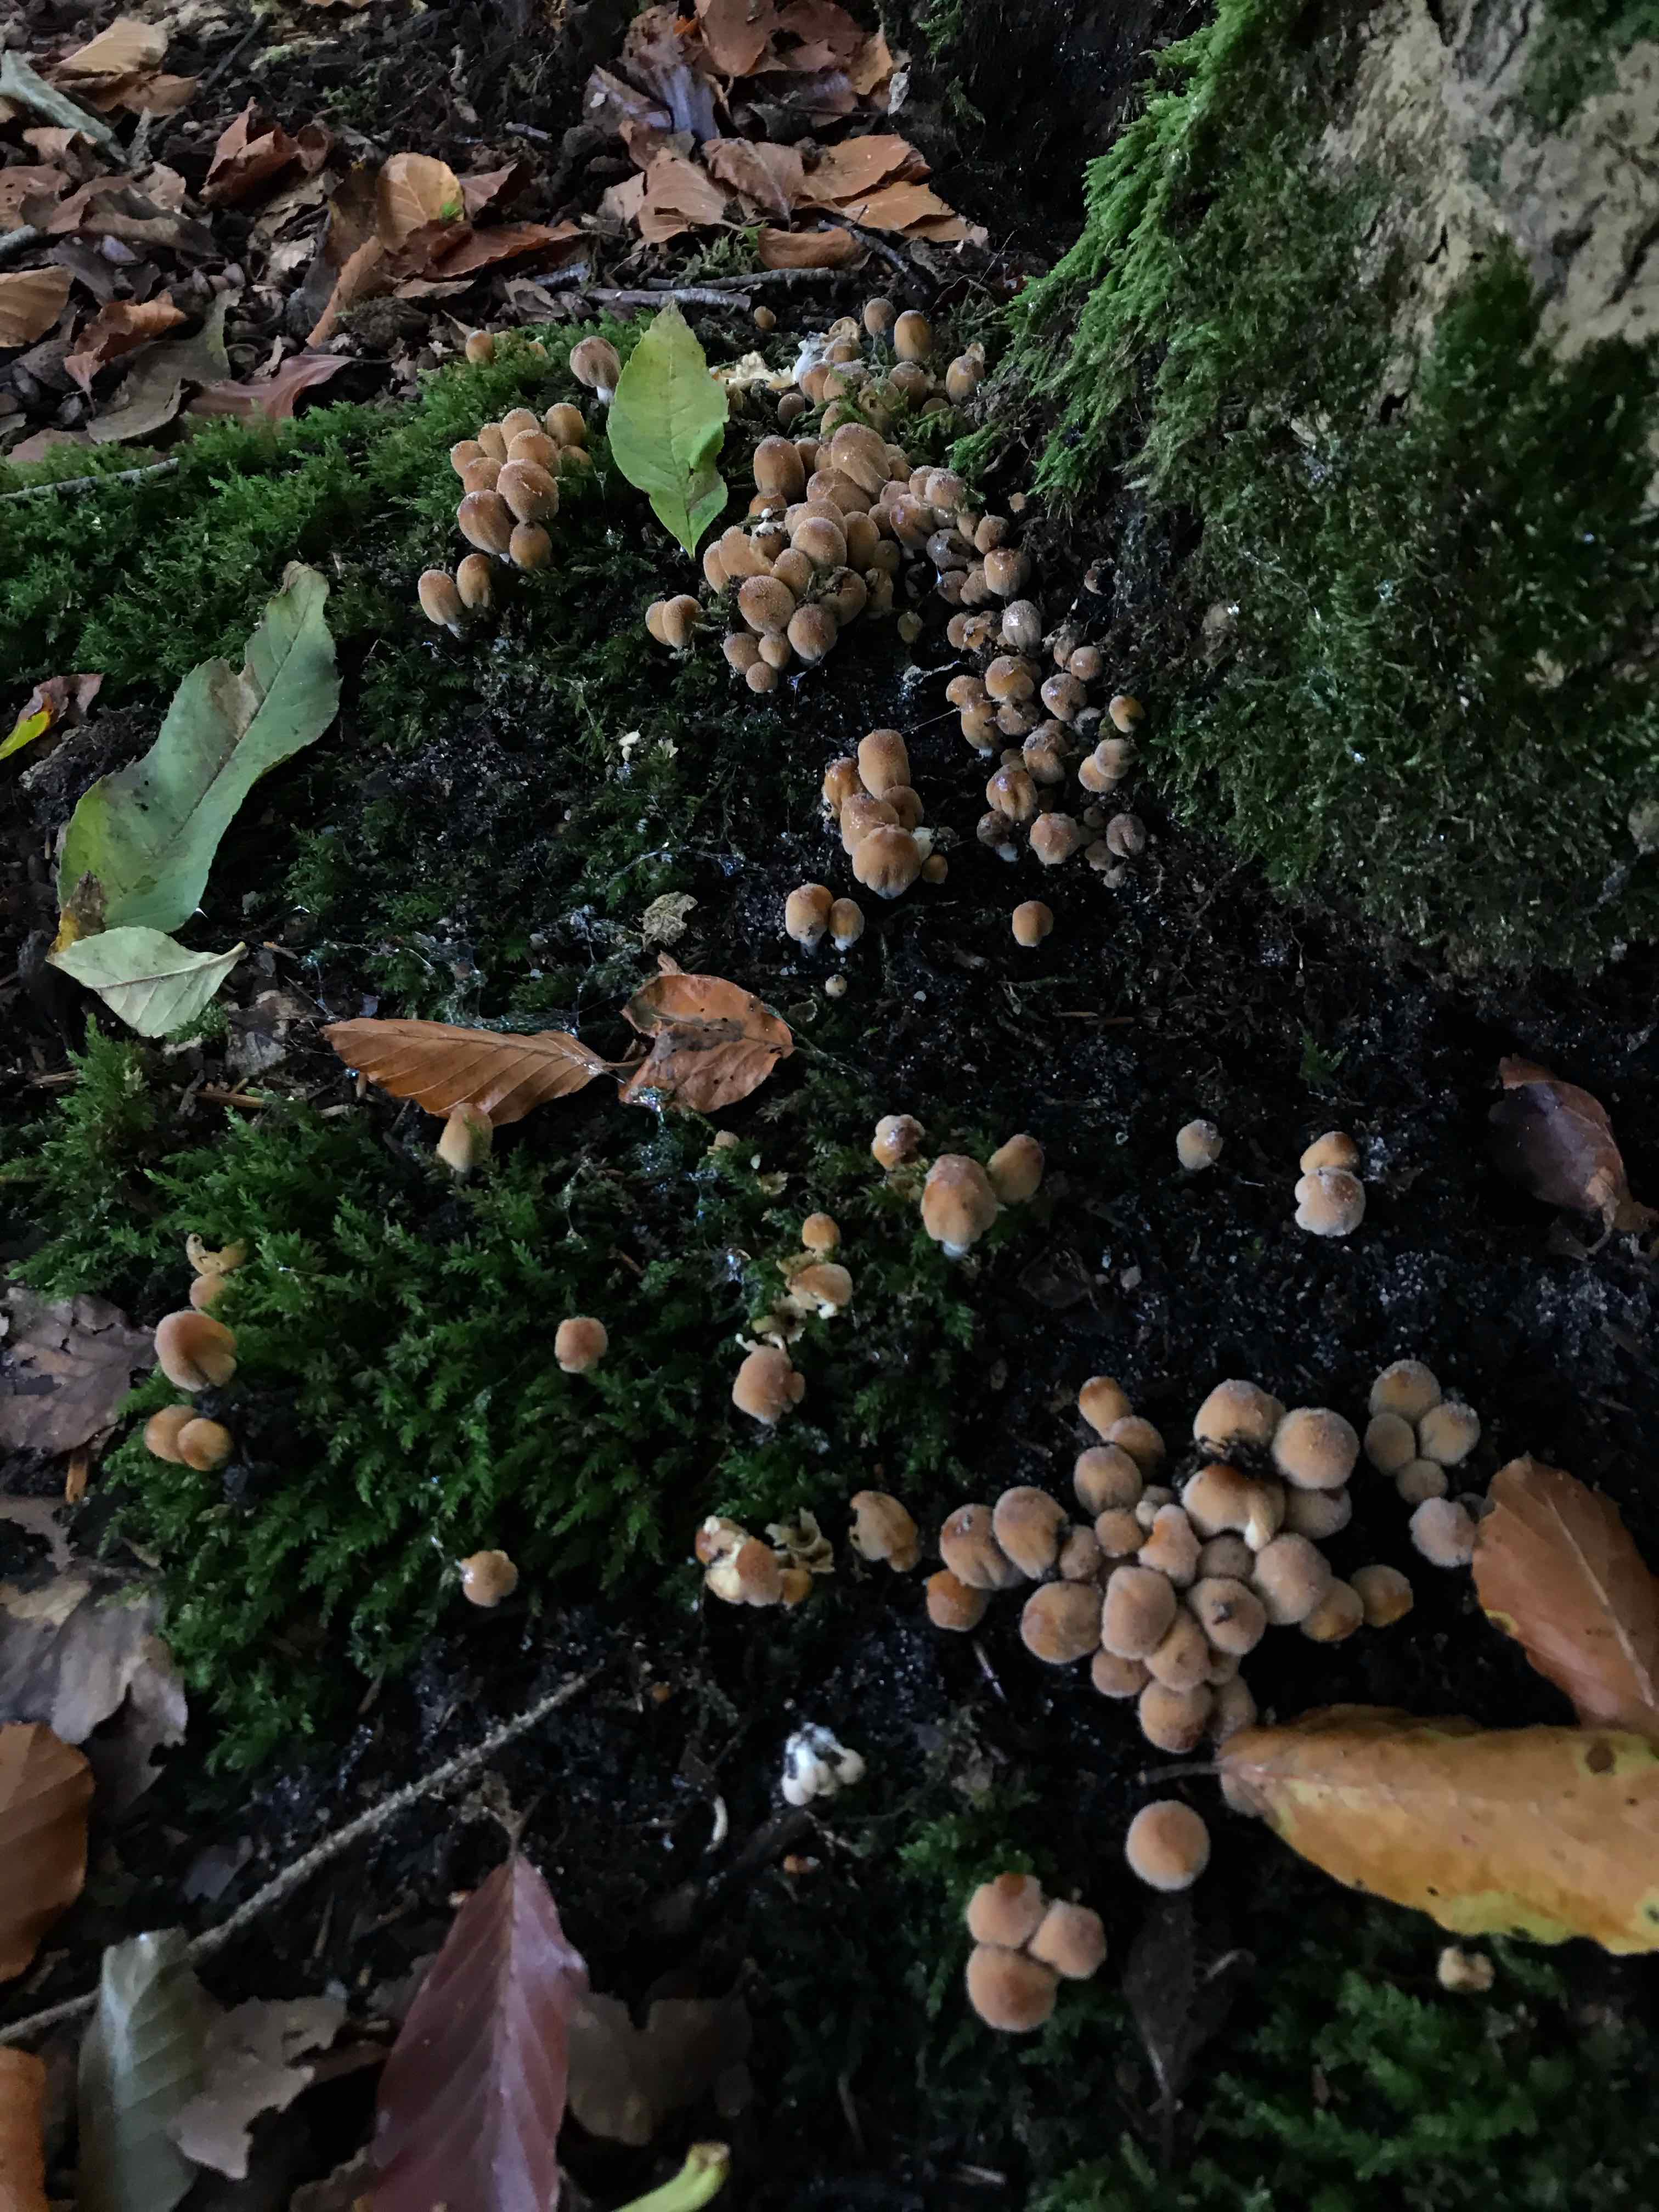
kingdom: Fungi
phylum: Basidiomycota
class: Agaricomycetes
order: Agaricales
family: Psathyrellaceae
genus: Coprinellus
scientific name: Coprinellus
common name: blækhat
